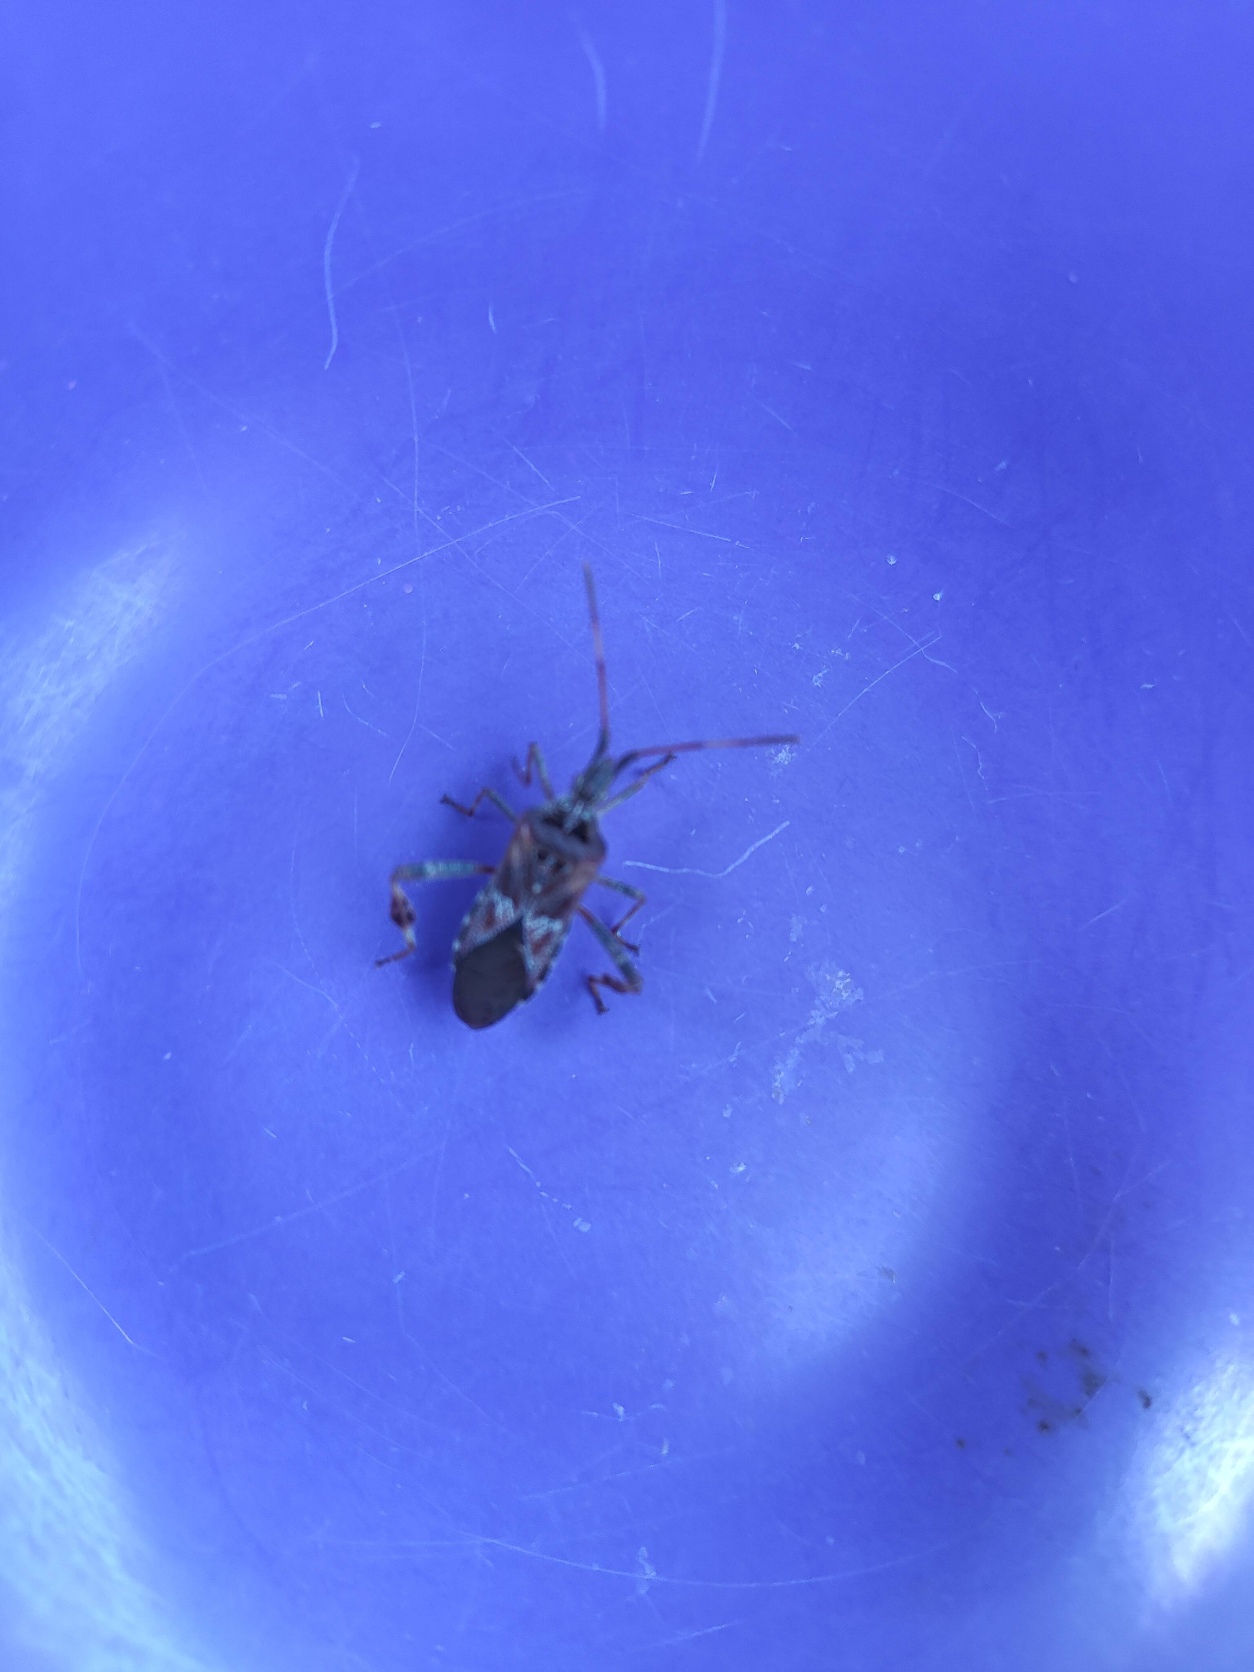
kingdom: Animalia
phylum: Arthropoda
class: Insecta
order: Hemiptera
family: Coreidae
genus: Leptoglossus
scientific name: Leptoglossus occidentalis
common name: Amerikansk fyrretæge
